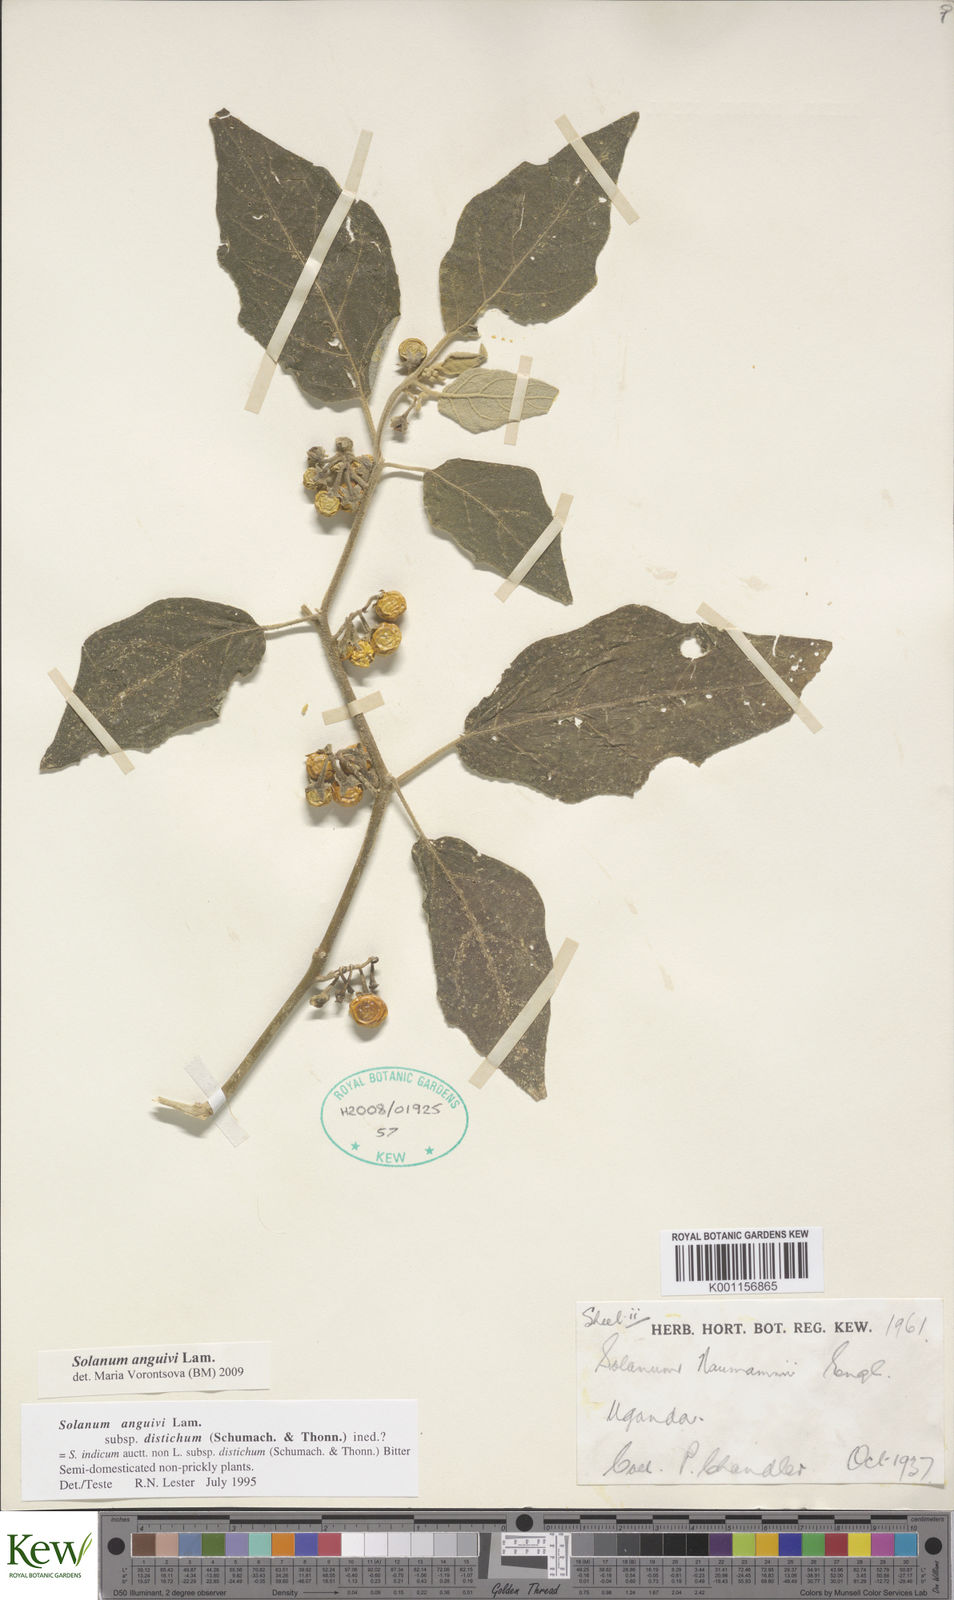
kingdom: Plantae
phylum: Tracheophyta
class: Magnoliopsida
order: Solanales
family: Solanaceae
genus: Solanum
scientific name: Solanum anguivi
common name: Forest bitterberry
